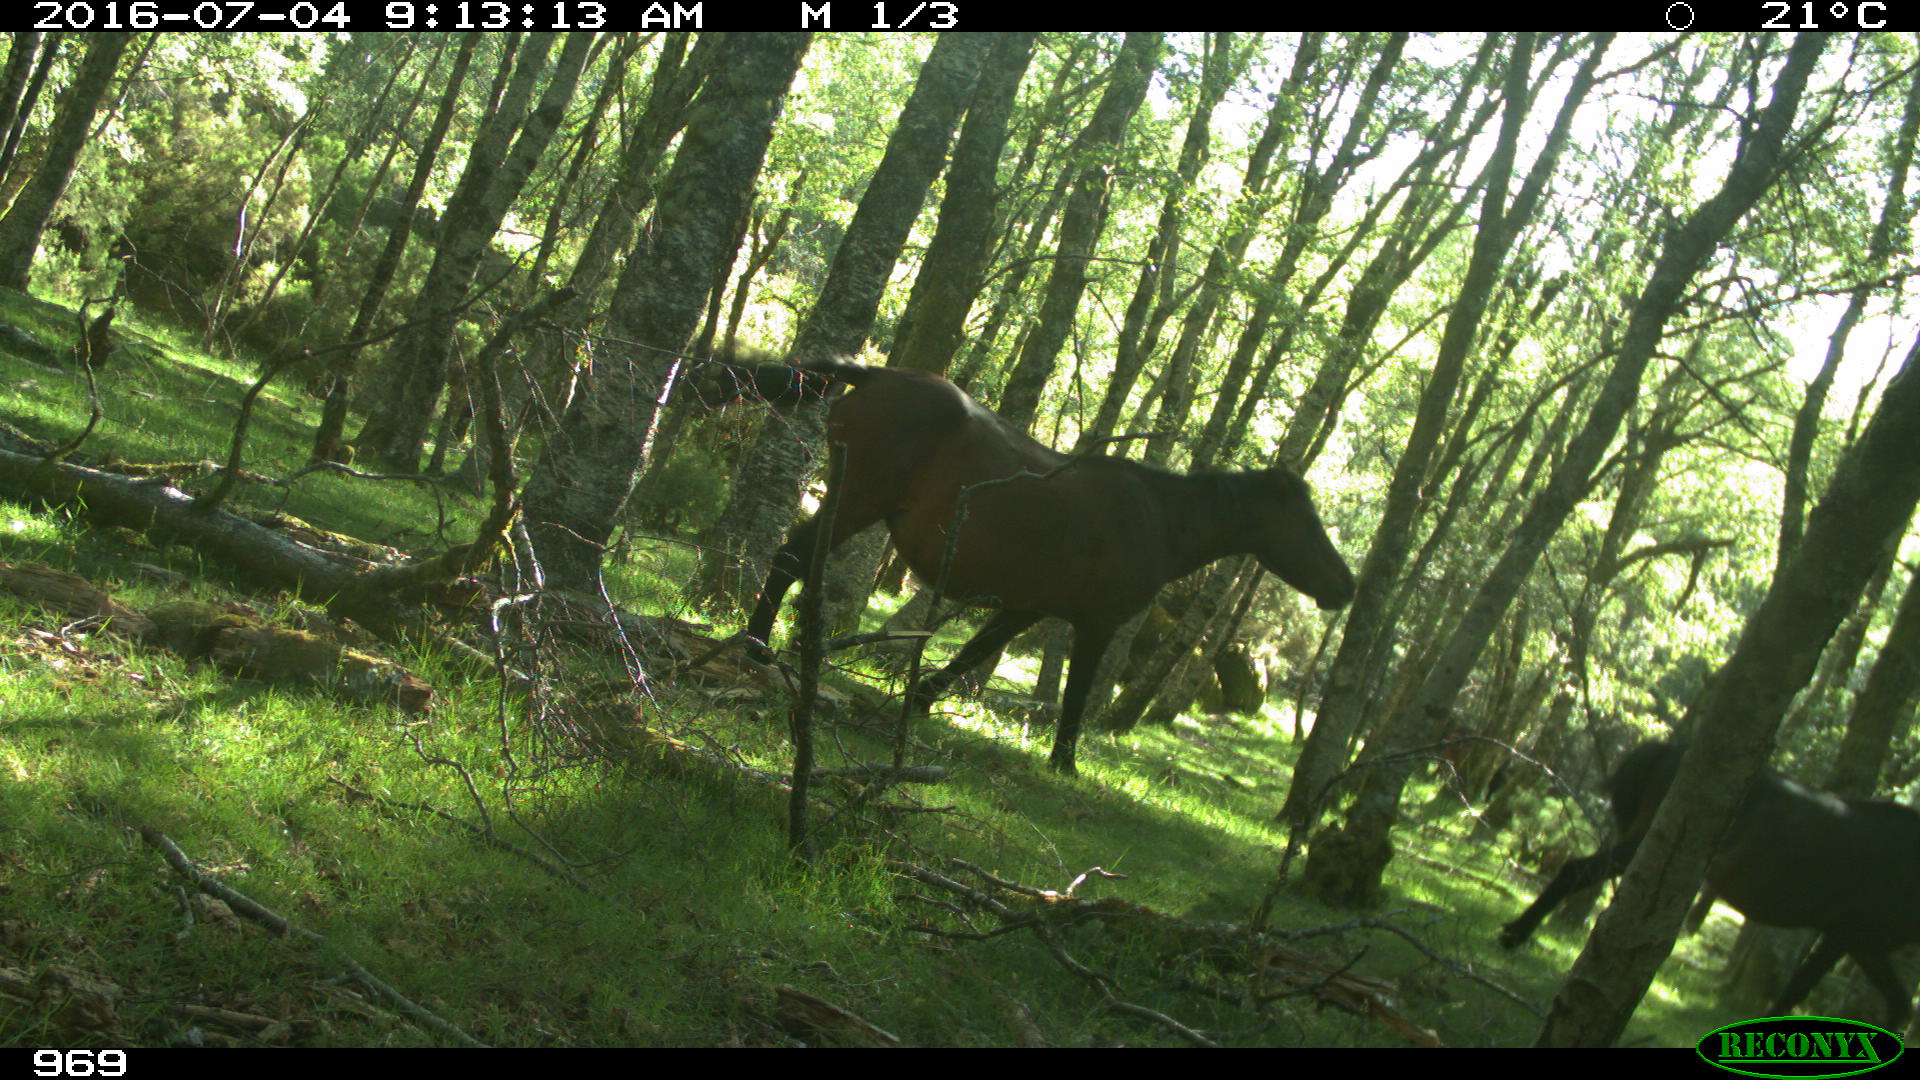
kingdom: Animalia
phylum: Chordata
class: Mammalia
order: Perissodactyla
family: Equidae
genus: Equus
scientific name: Equus caballus
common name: Horse
